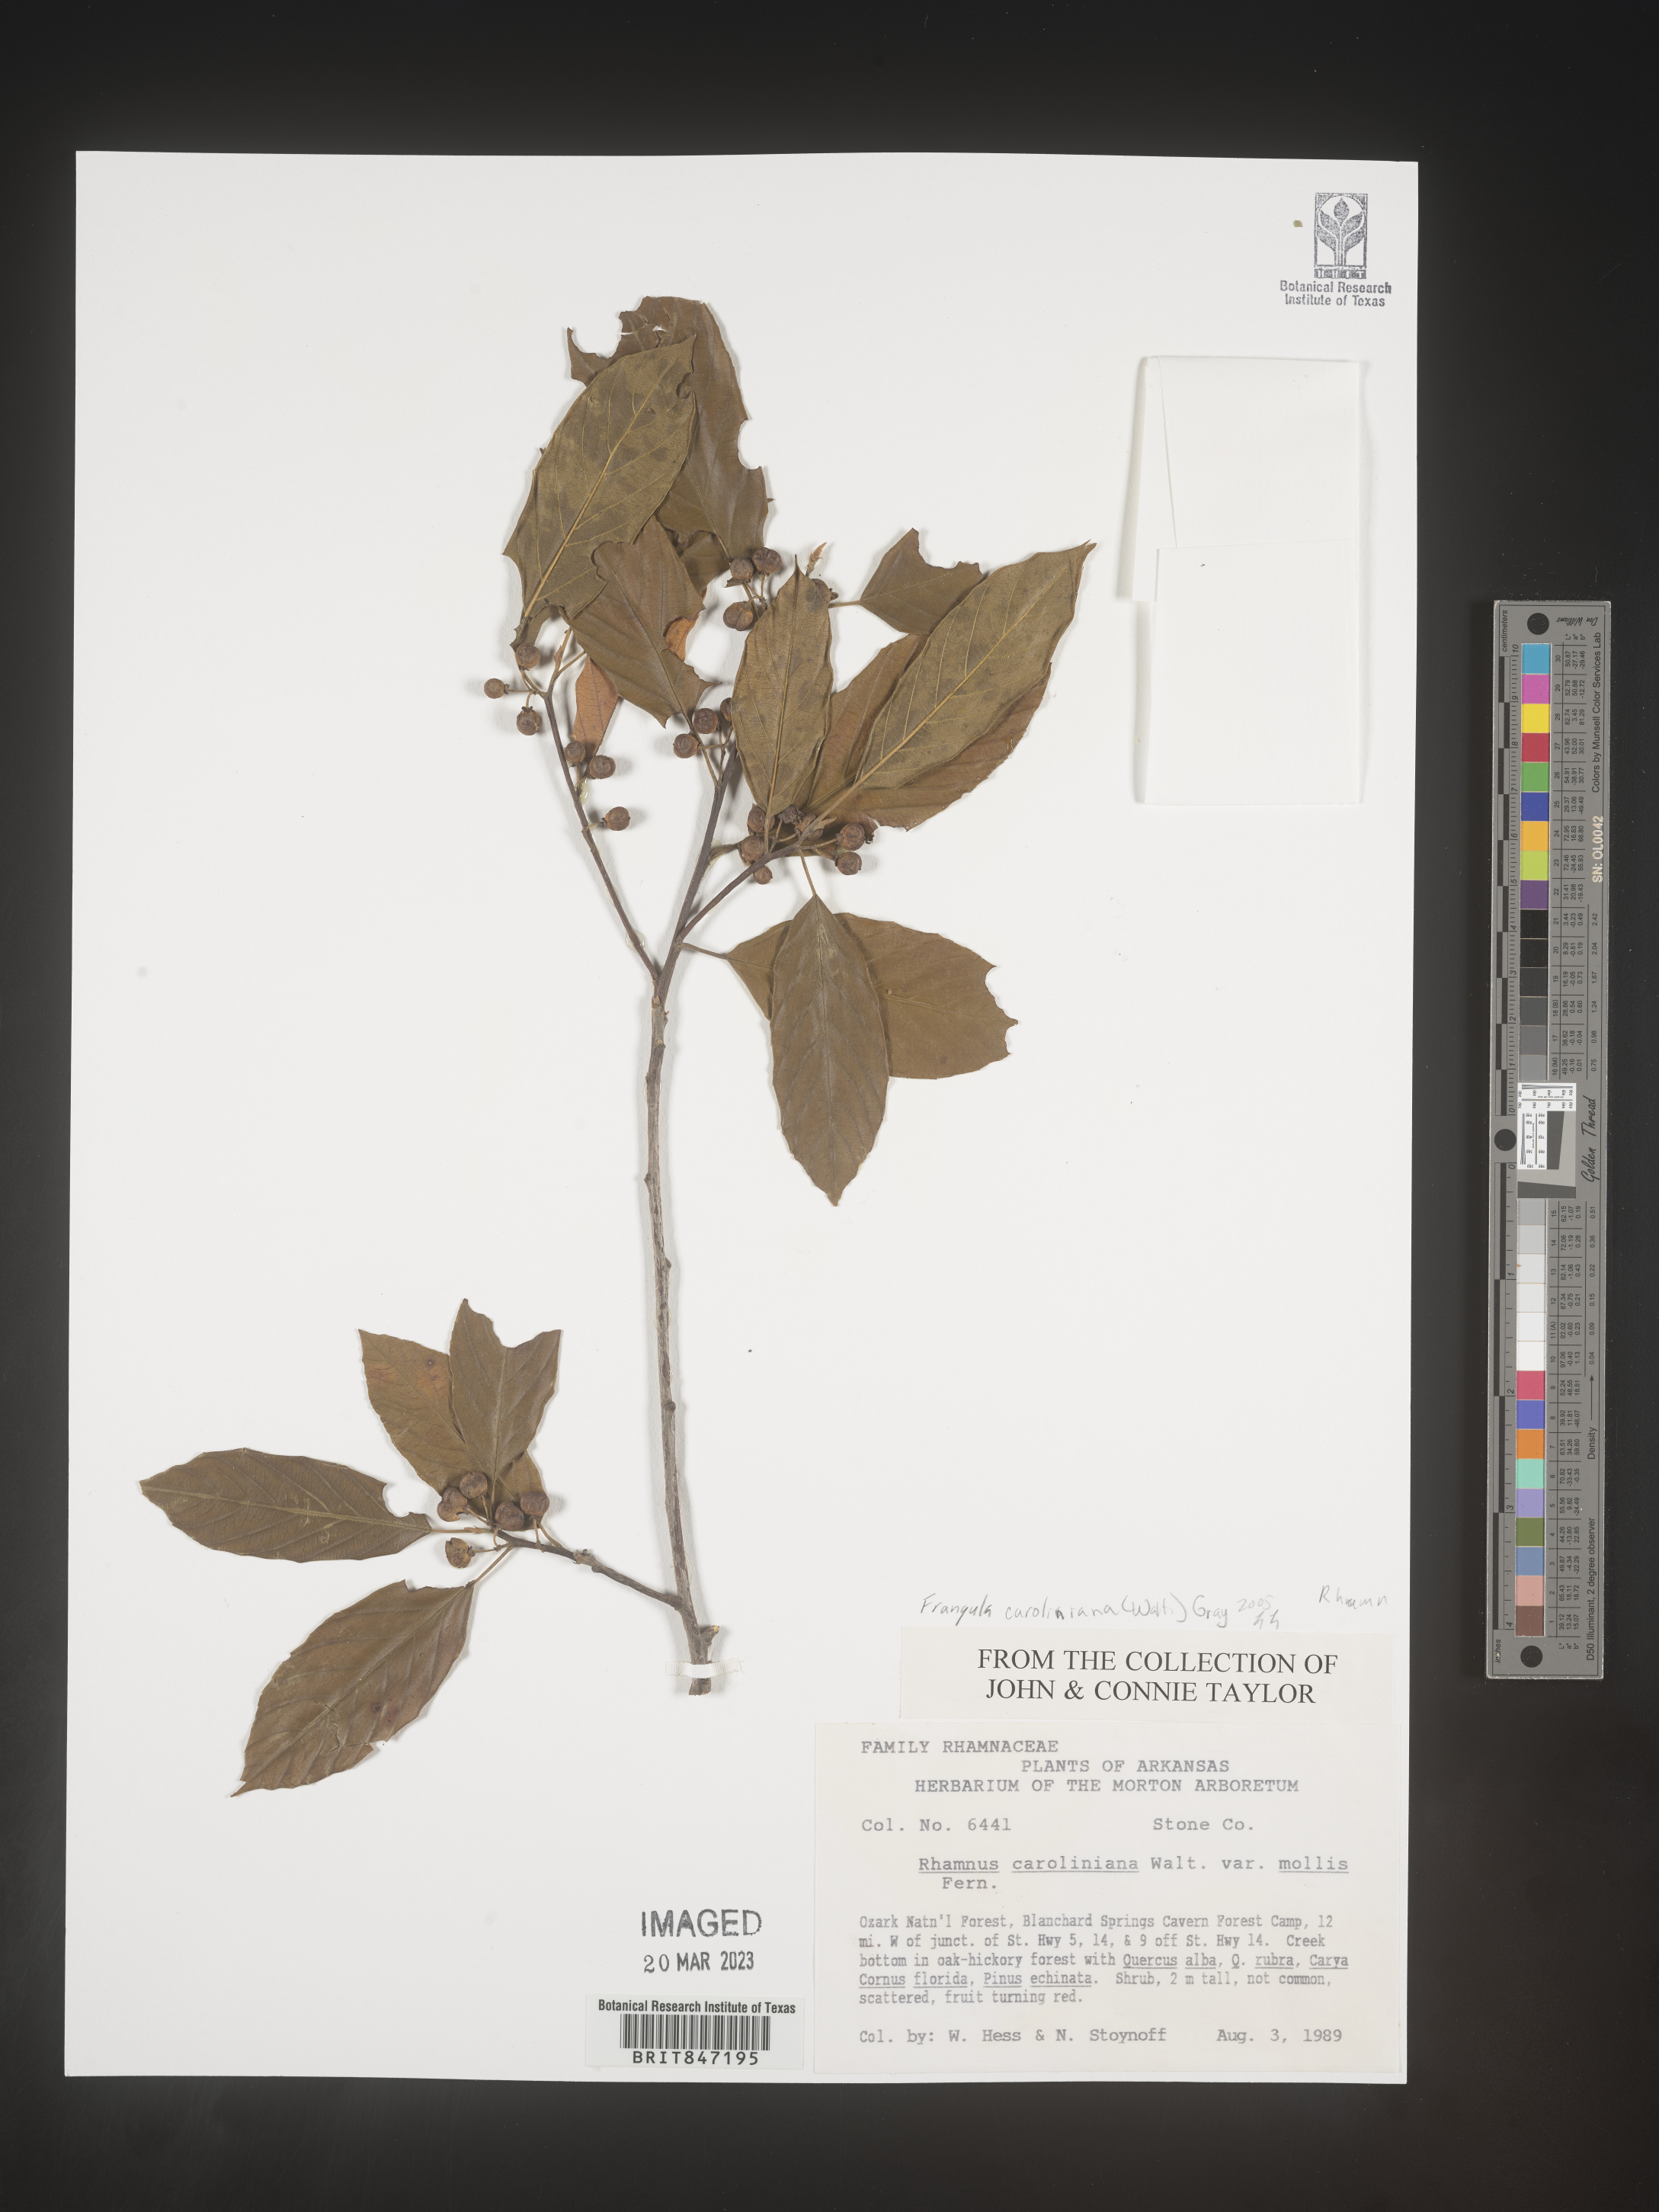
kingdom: Plantae
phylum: Tracheophyta
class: Magnoliopsida
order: Rosales
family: Rhamnaceae
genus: Frangula
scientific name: Frangula
